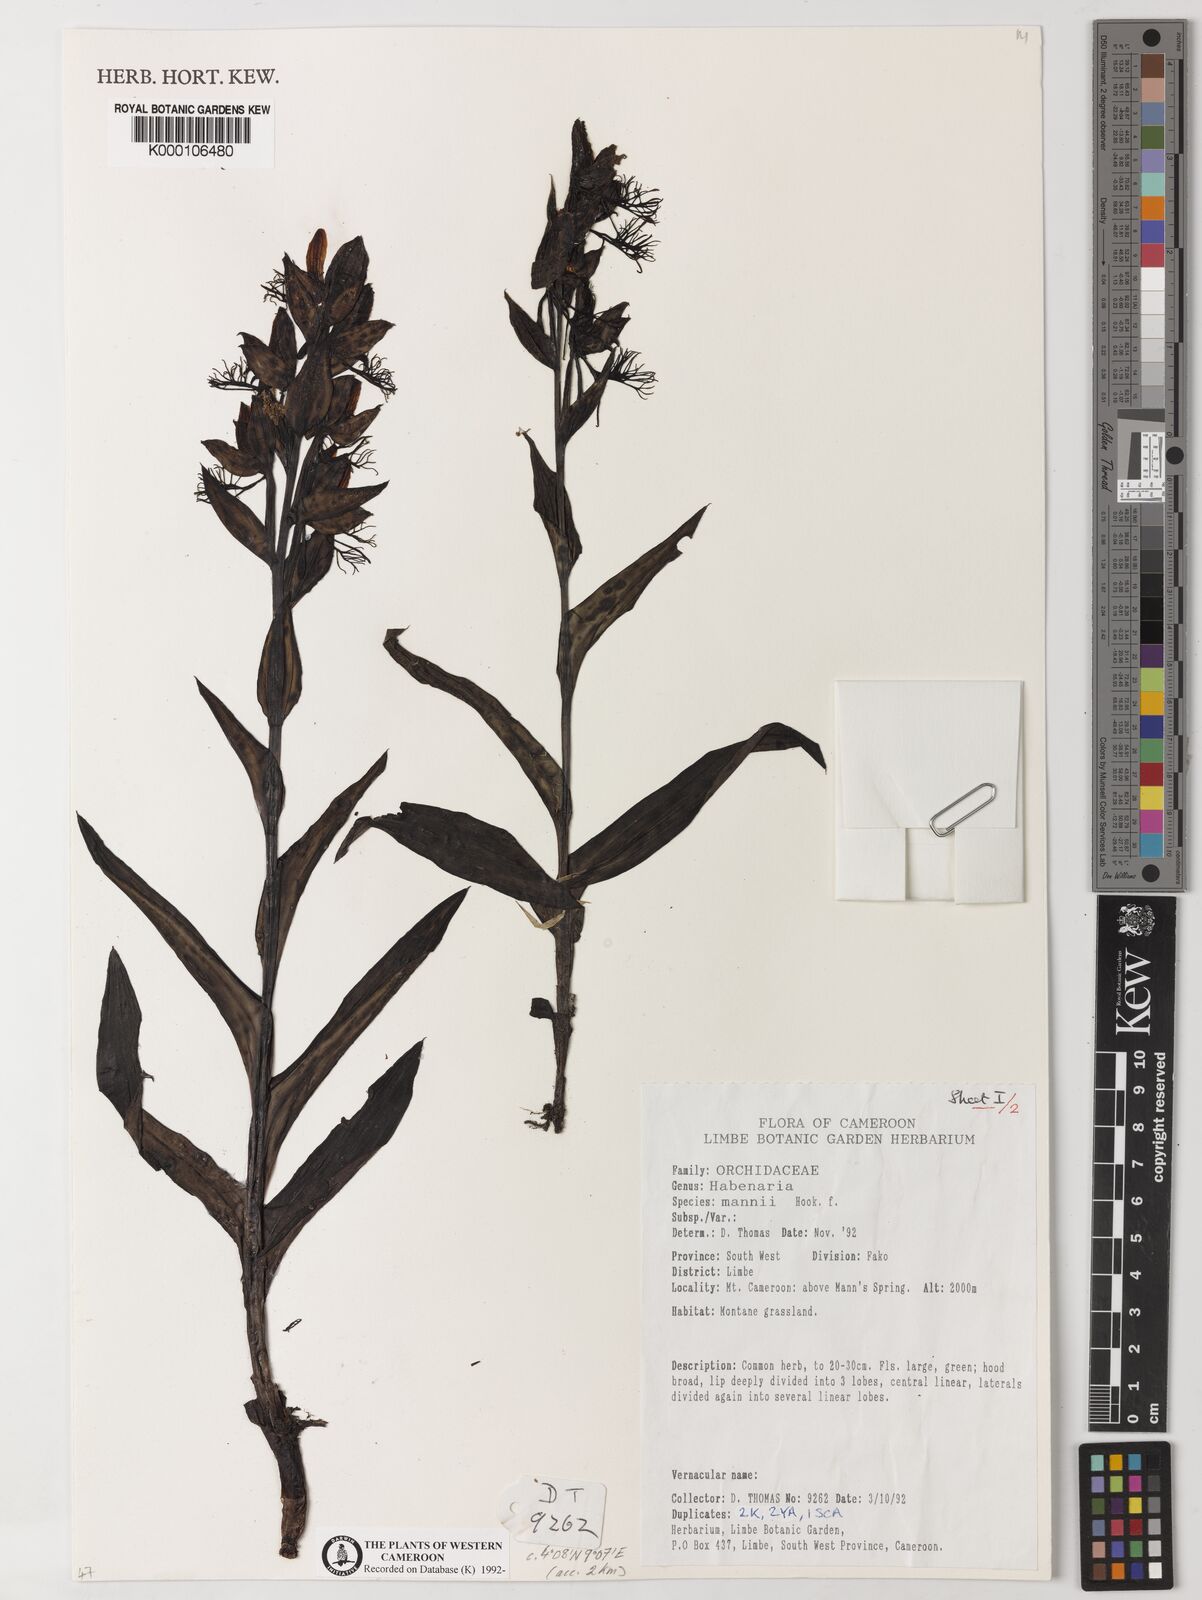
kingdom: Plantae
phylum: Tracheophyta
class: Liliopsida
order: Asparagales
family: Orchidaceae
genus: Habenaria
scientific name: Habenaria mannii
